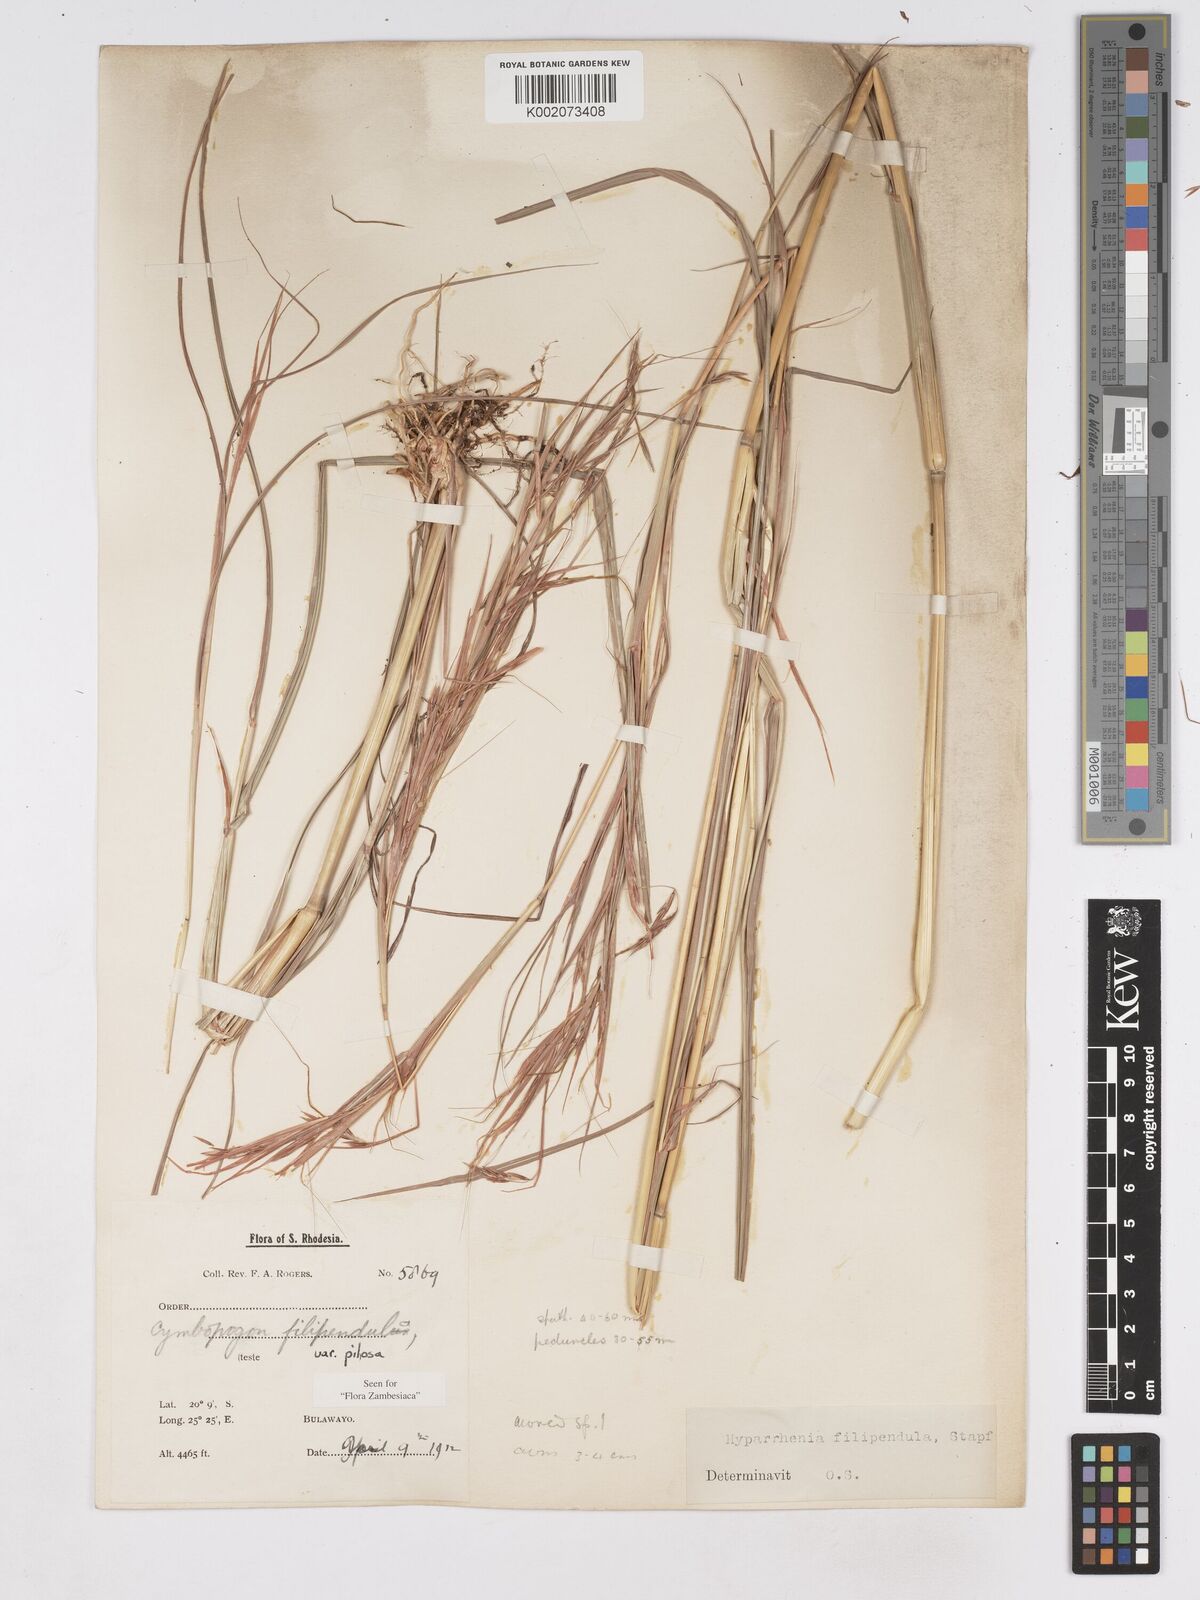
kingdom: Plantae
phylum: Tracheophyta
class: Liliopsida
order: Poales
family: Poaceae
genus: Hyparrhenia
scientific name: Hyparrhenia filipendula
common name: Tambookie grass
